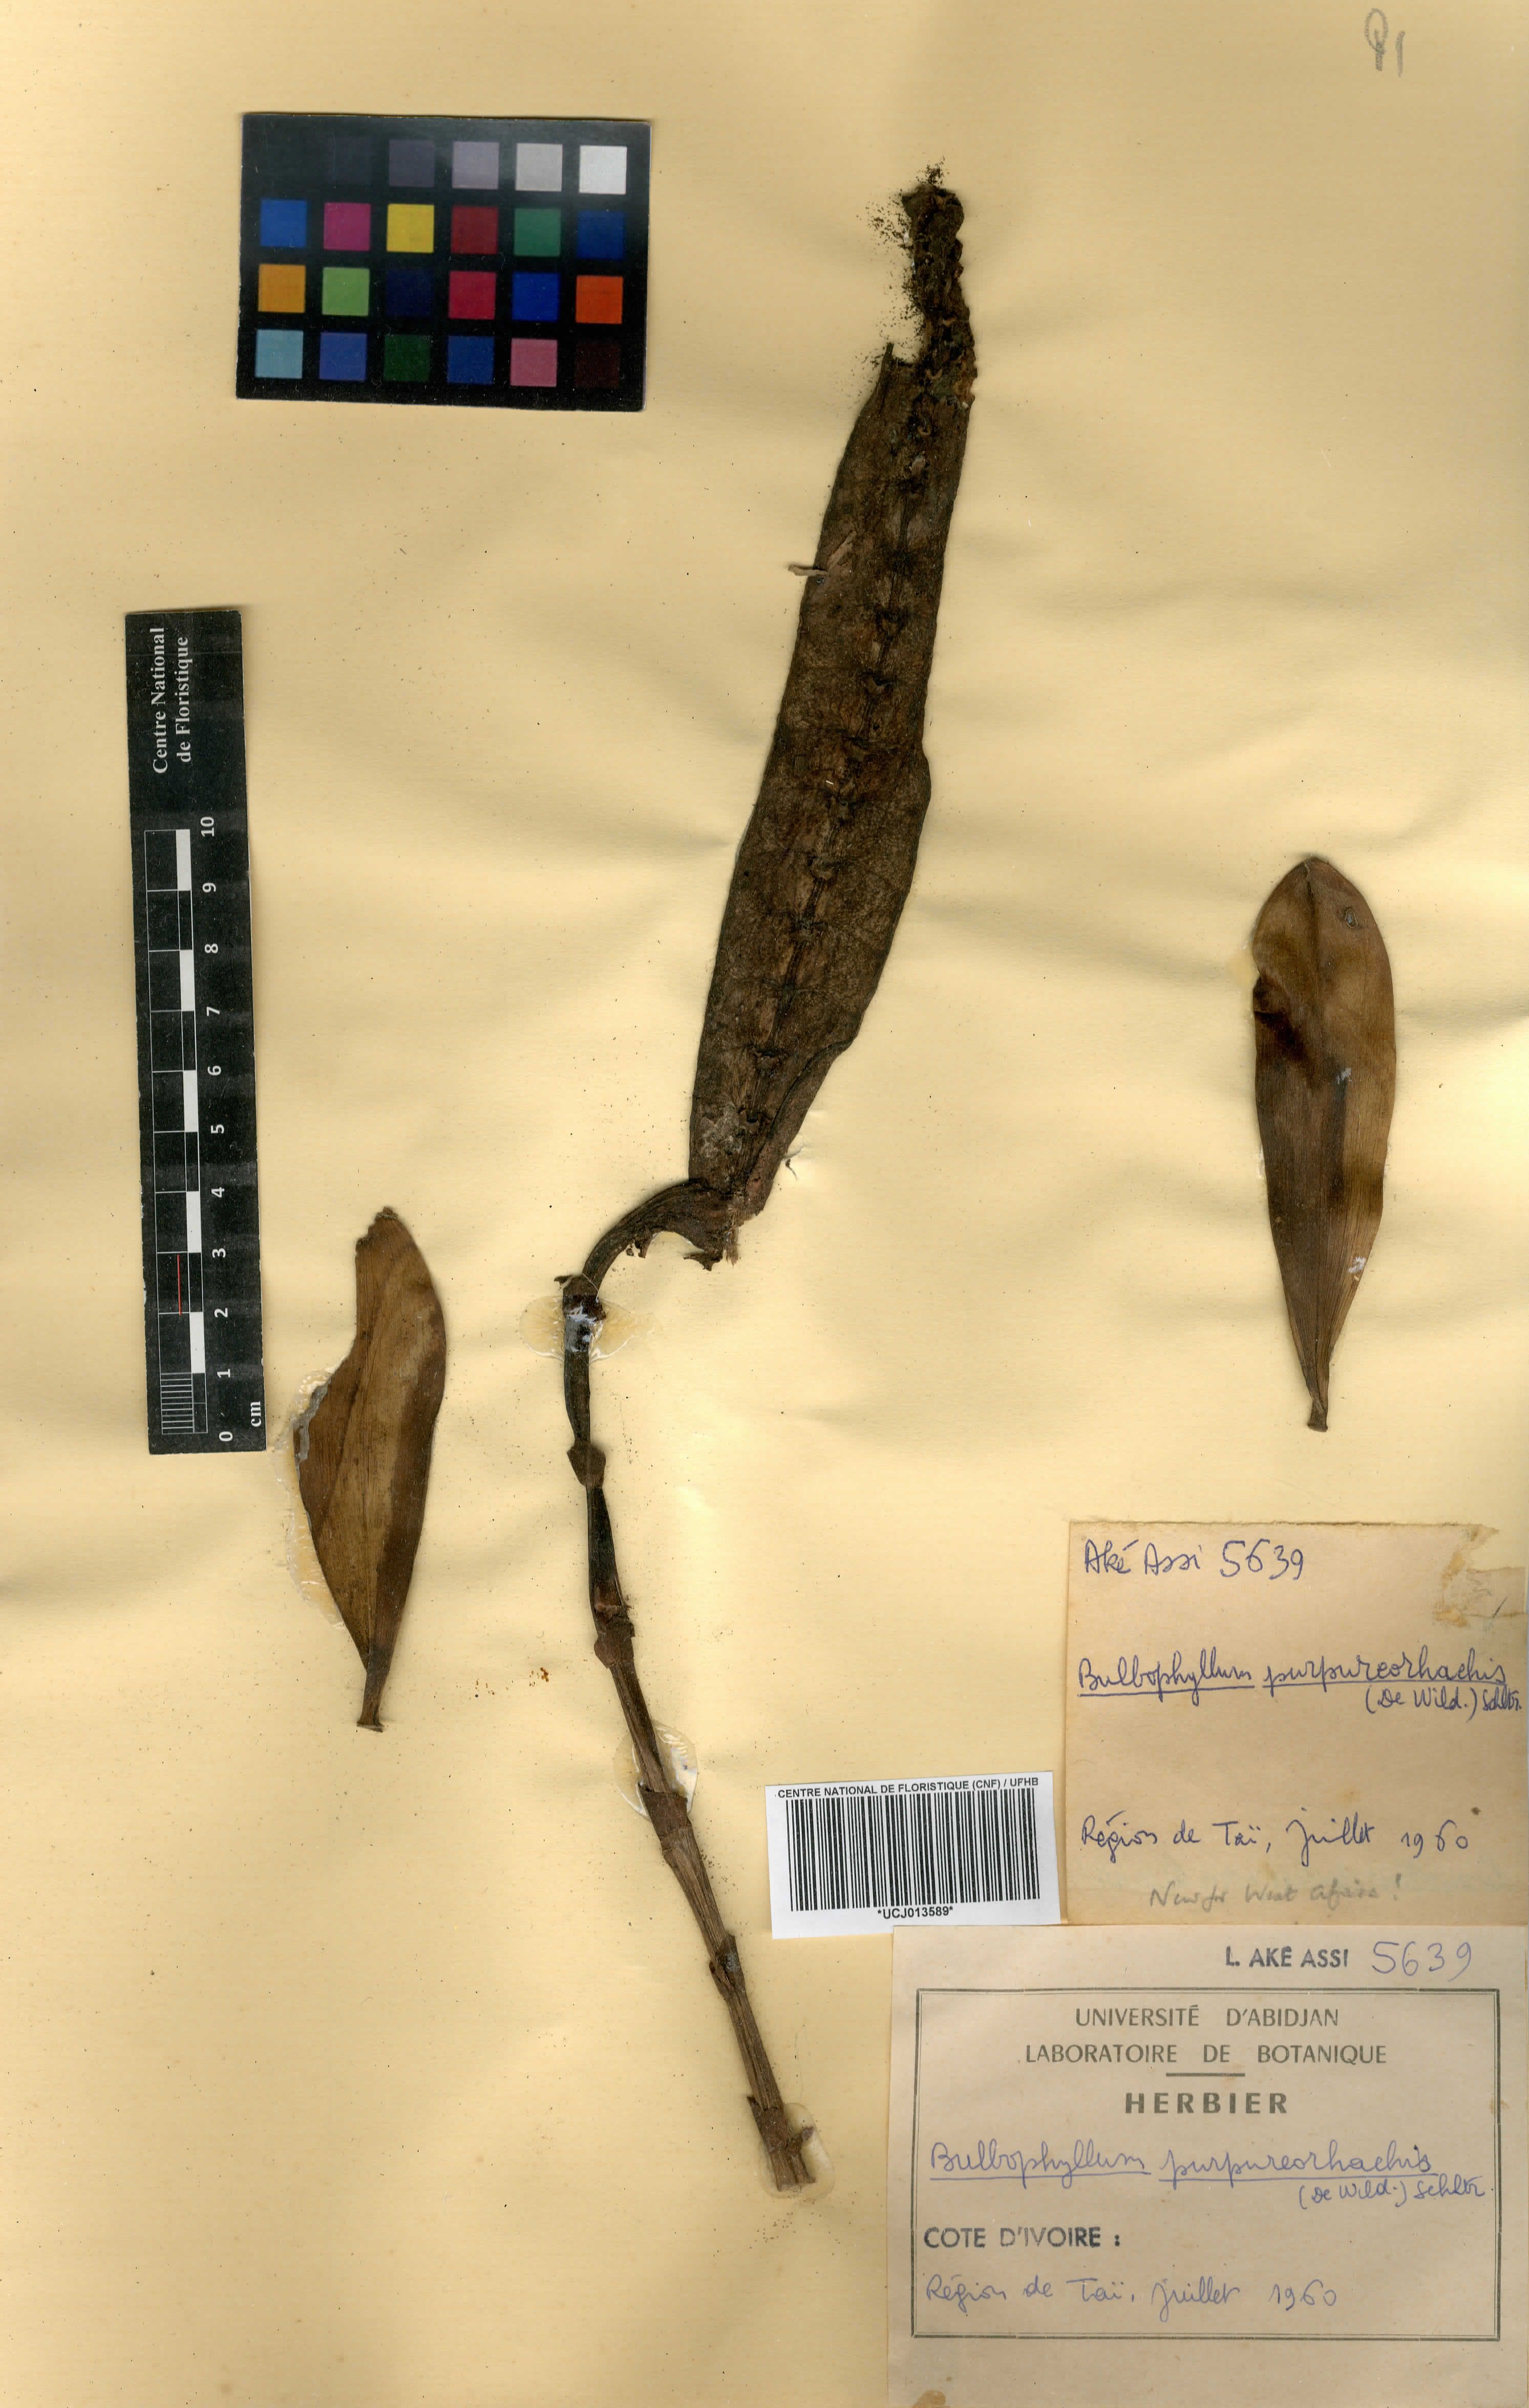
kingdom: Plantae
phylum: Tracheophyta
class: Liliopsida
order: Asparagales
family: Orchidaceae
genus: Bulbophyllum
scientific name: Bulbophyllum purpureorhachis
